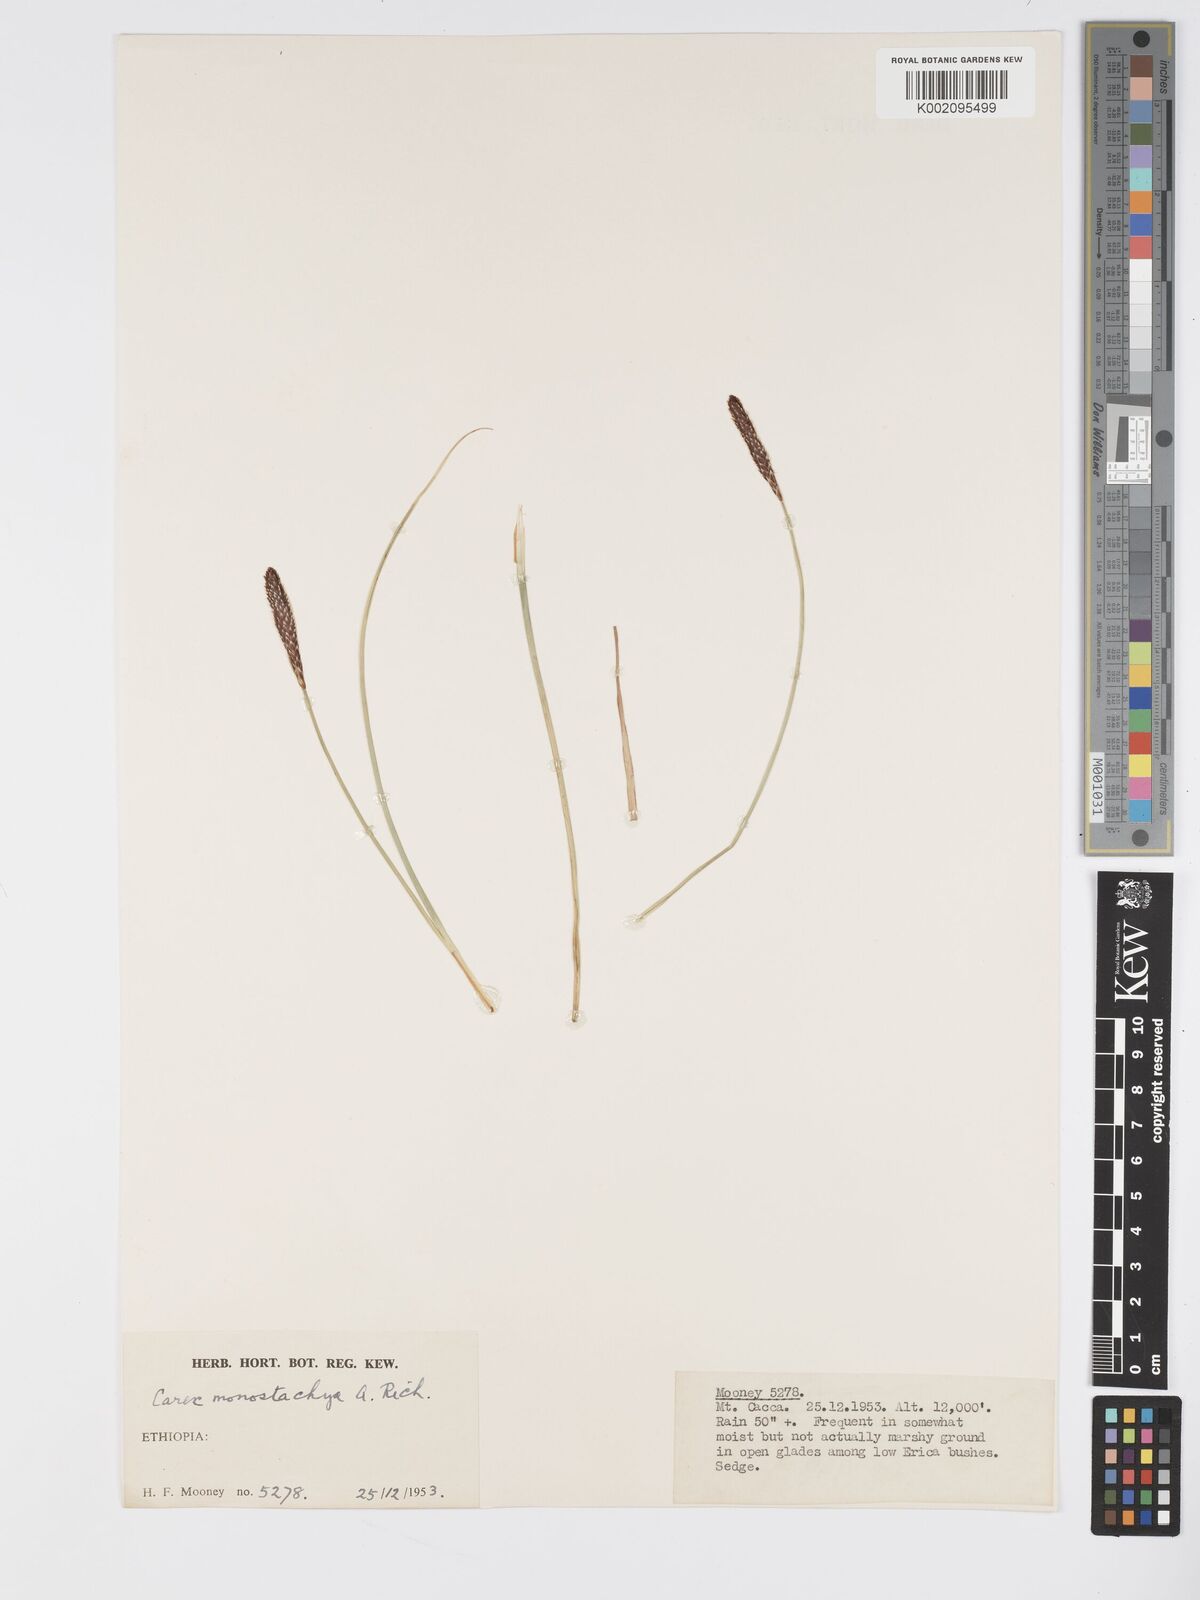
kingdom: Plantae
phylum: Tracheophyta
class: Liliopsida
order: Poales
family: Cyperaceae
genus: Carex
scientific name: Carex monostachya
